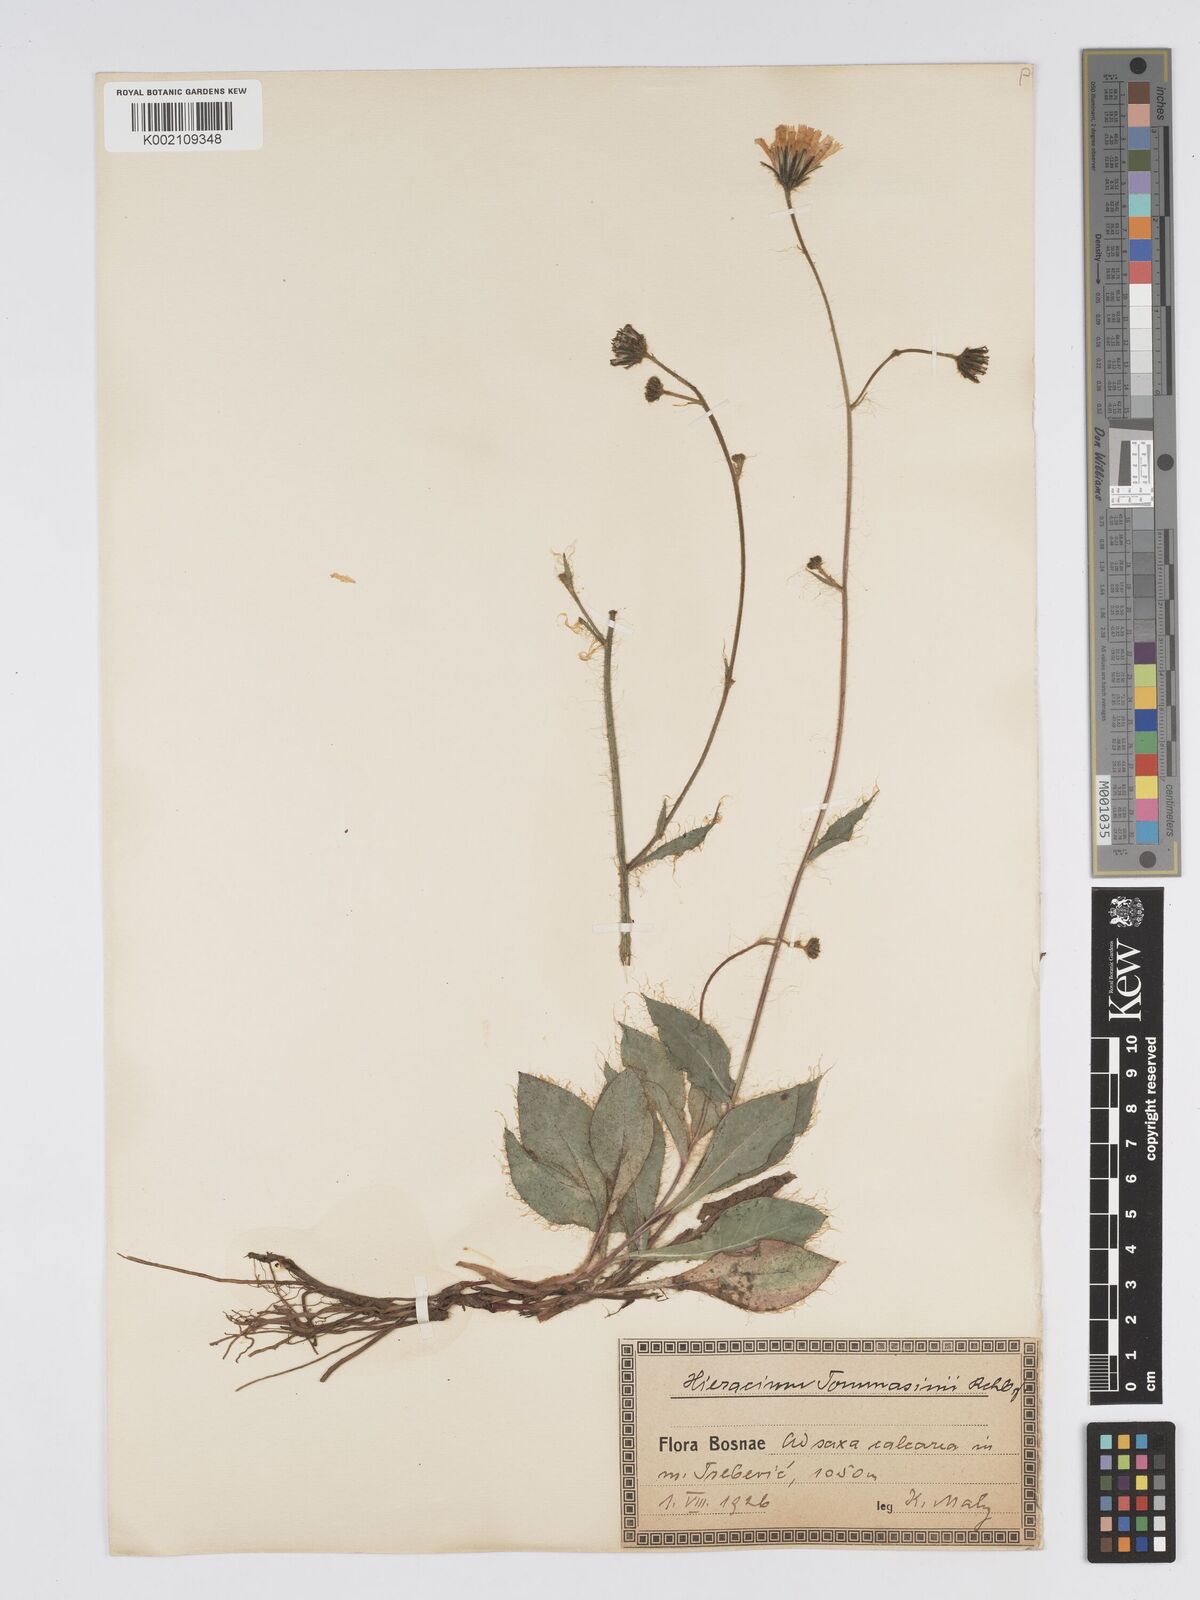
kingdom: Plantae
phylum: Tracheophyta
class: Magnoliopsida
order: Asterales
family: Asteraceae
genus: Hieracium
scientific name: Hieracium tommasinianum
